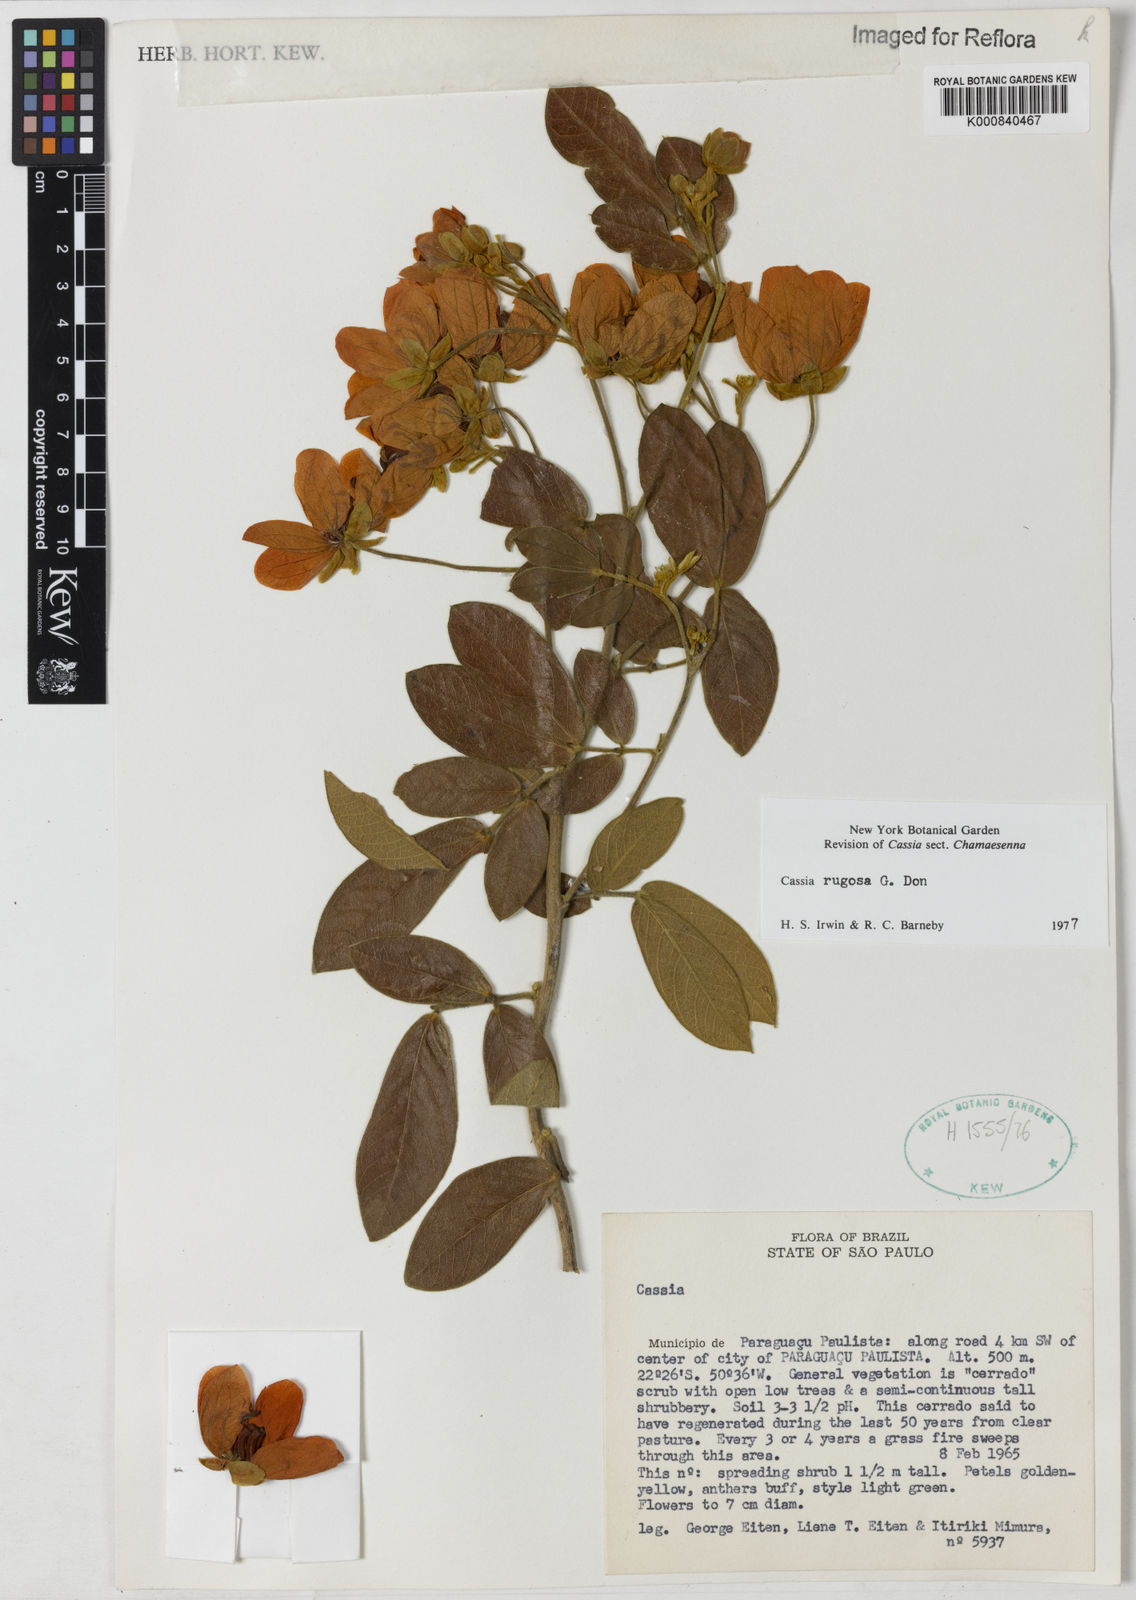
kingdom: Plantae
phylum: Tracheophyta
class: Magnoliopsida
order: Fabales
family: Fabaceae
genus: Senna
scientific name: Senna rugosa
